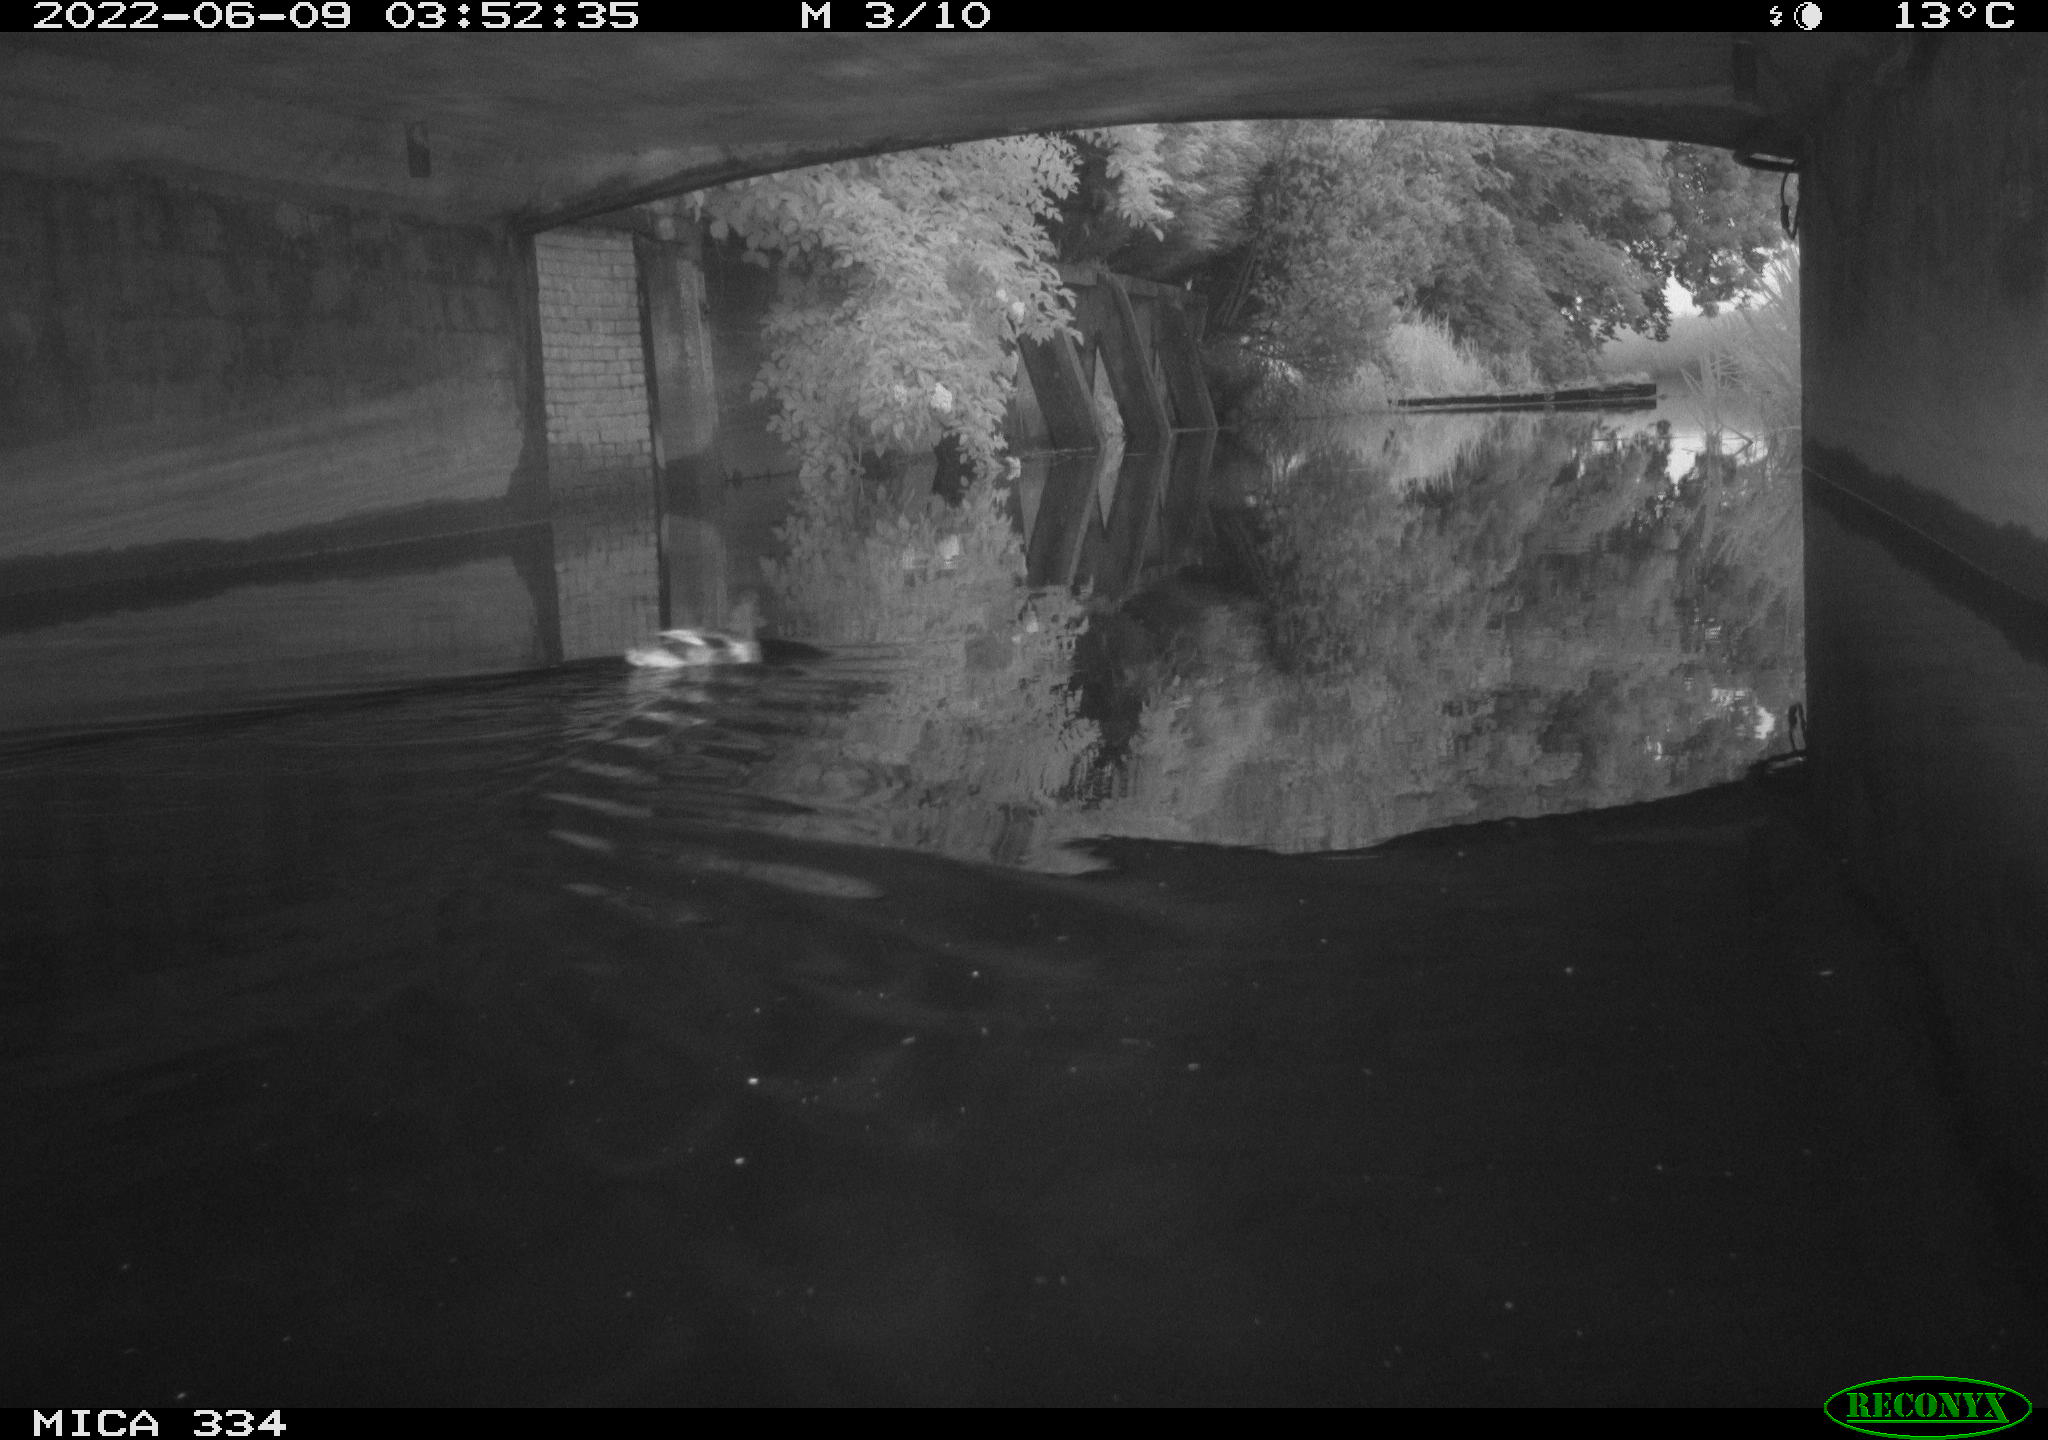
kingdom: Animalia
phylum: Chordata
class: Aves
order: Anseriformes
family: Anatidae
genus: Anas
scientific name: Anas platyrhynchos
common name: Mallard
